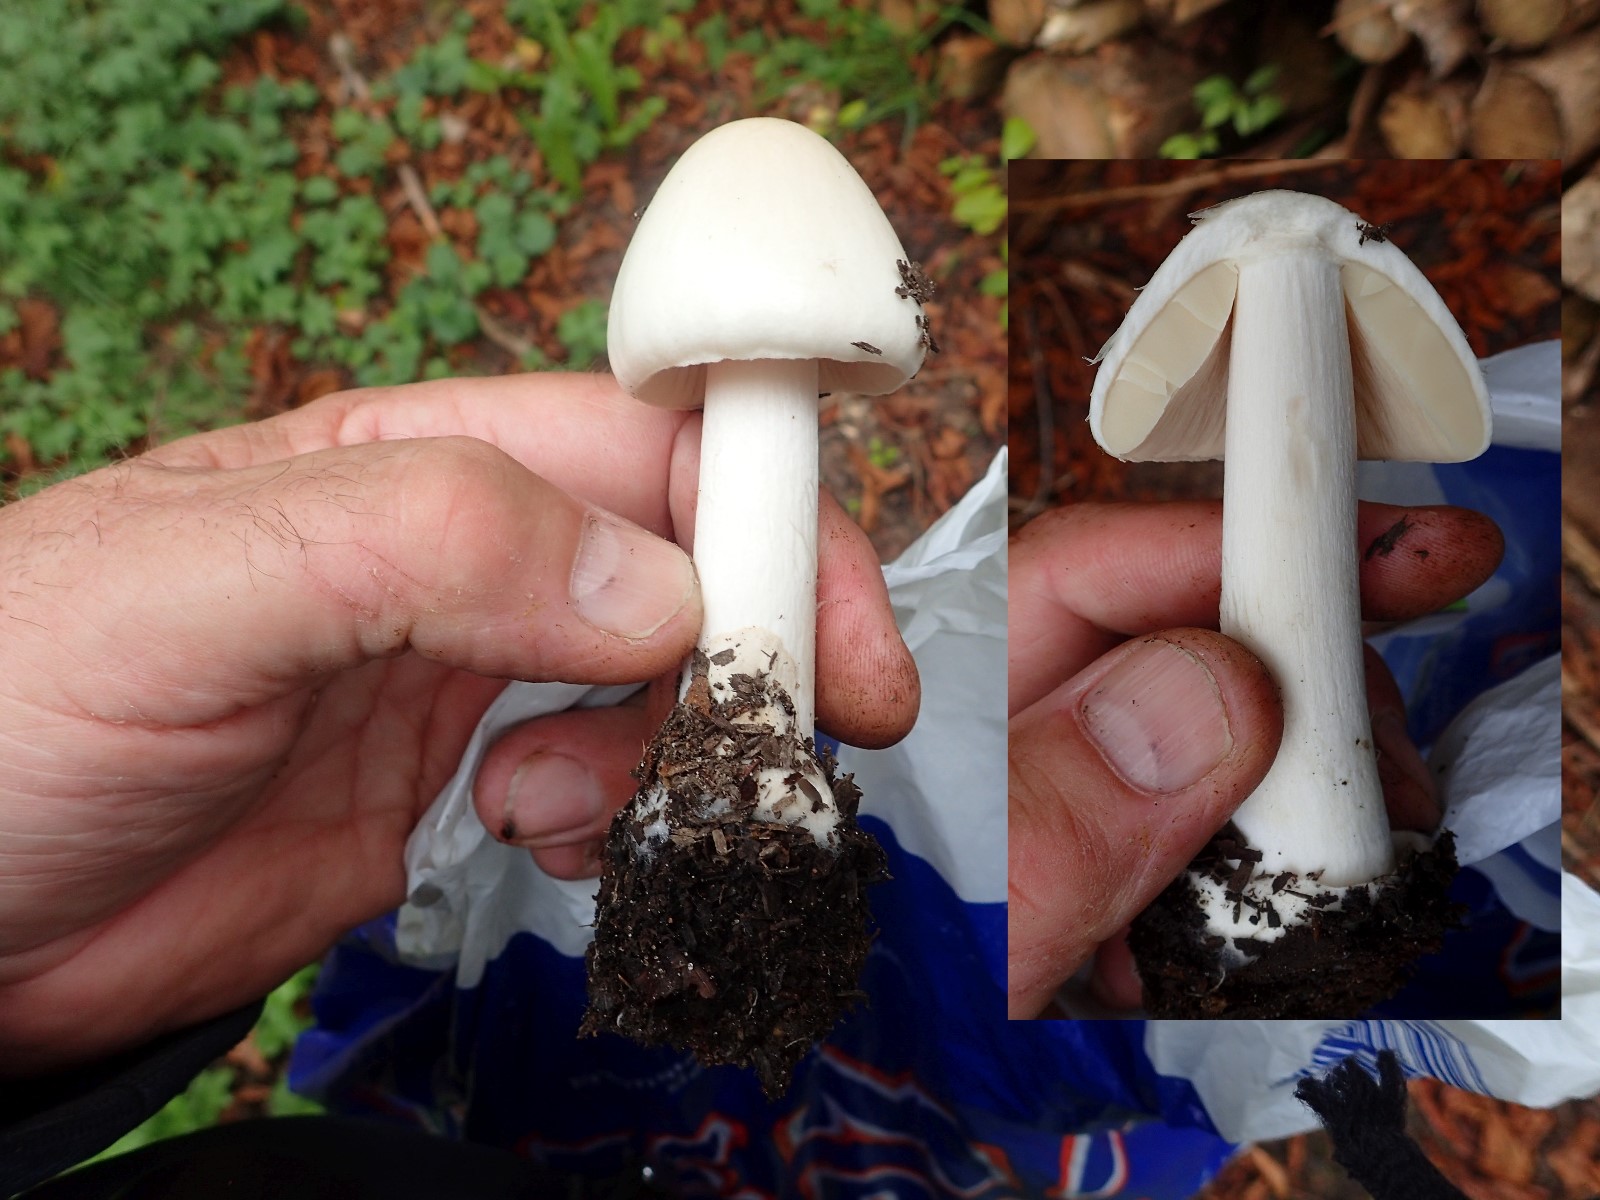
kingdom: Fungi
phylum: Basidiomycota
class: Agaricomycetes
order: Agaricales
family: Pluteaceae
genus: Volvopluteus
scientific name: Volvopluteus gloiocephalus
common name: høj posesvamp
